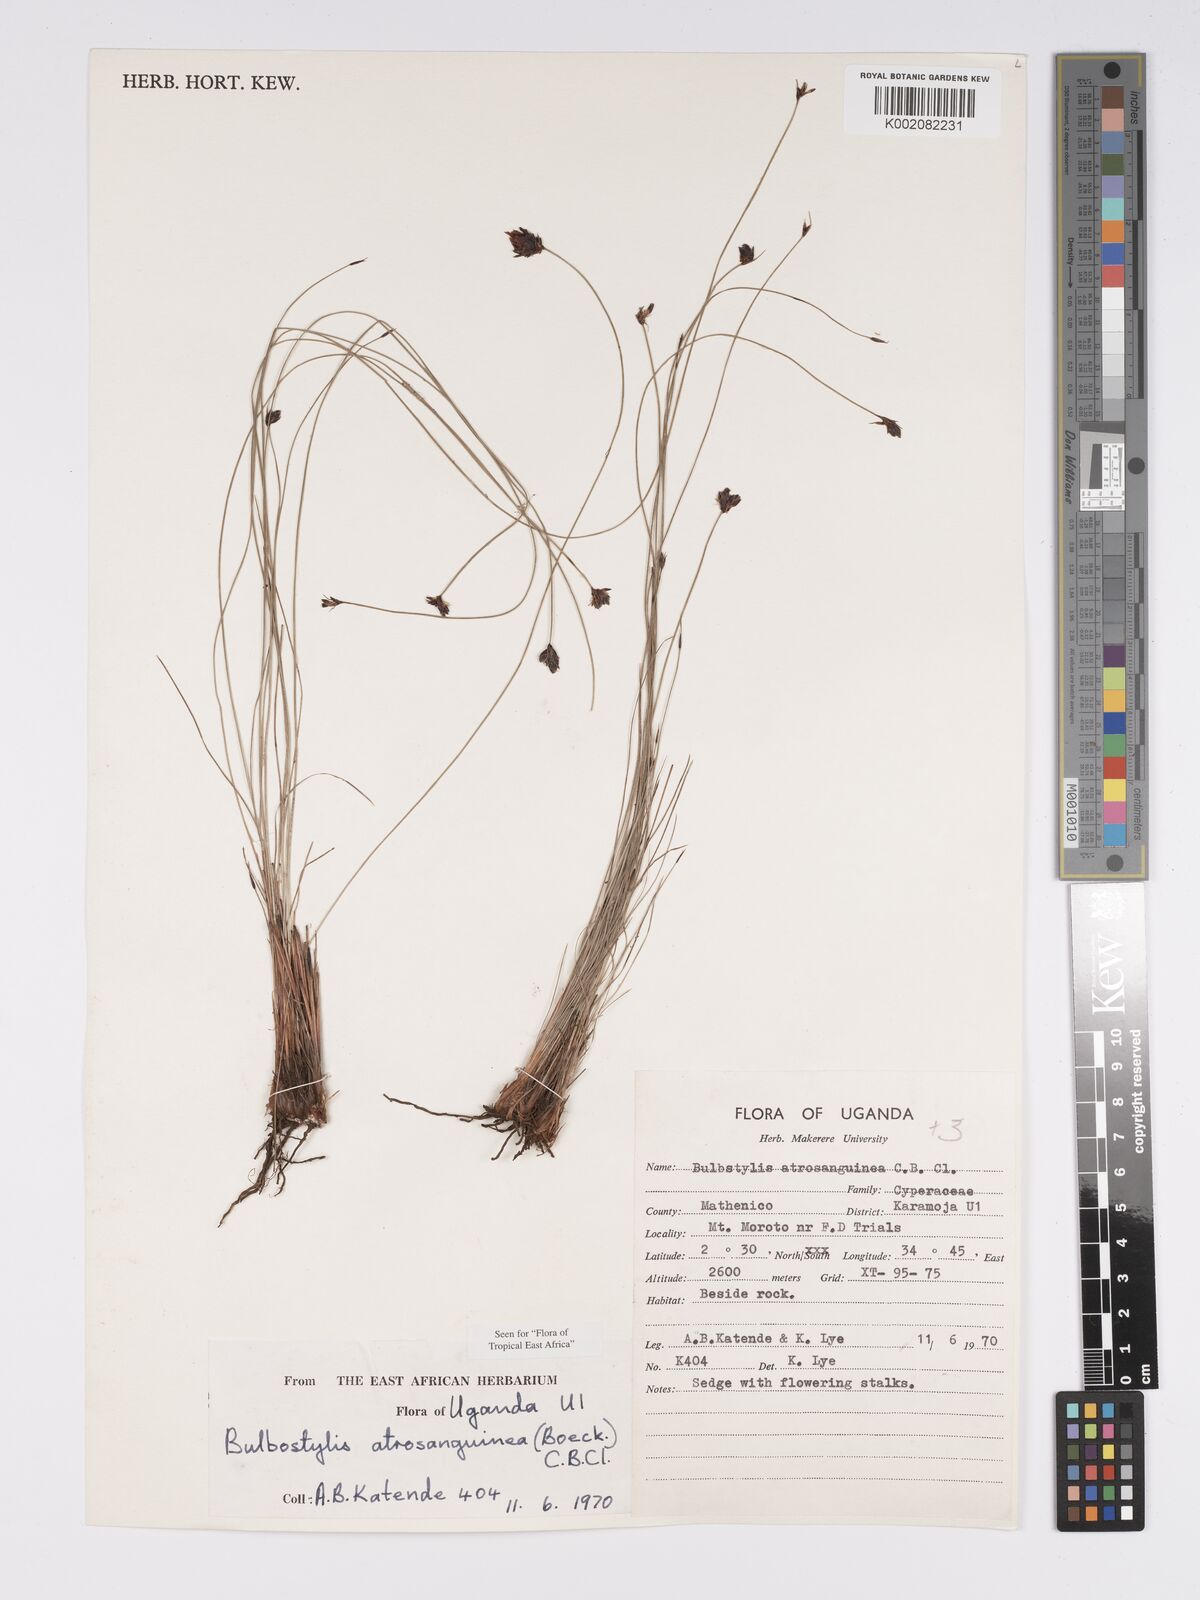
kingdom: Plantae
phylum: Tracheophyta
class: Liliopsida
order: Poales
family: Cyperaceae
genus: Bulbostylis
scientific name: Bulbostylis atrosanguinea
